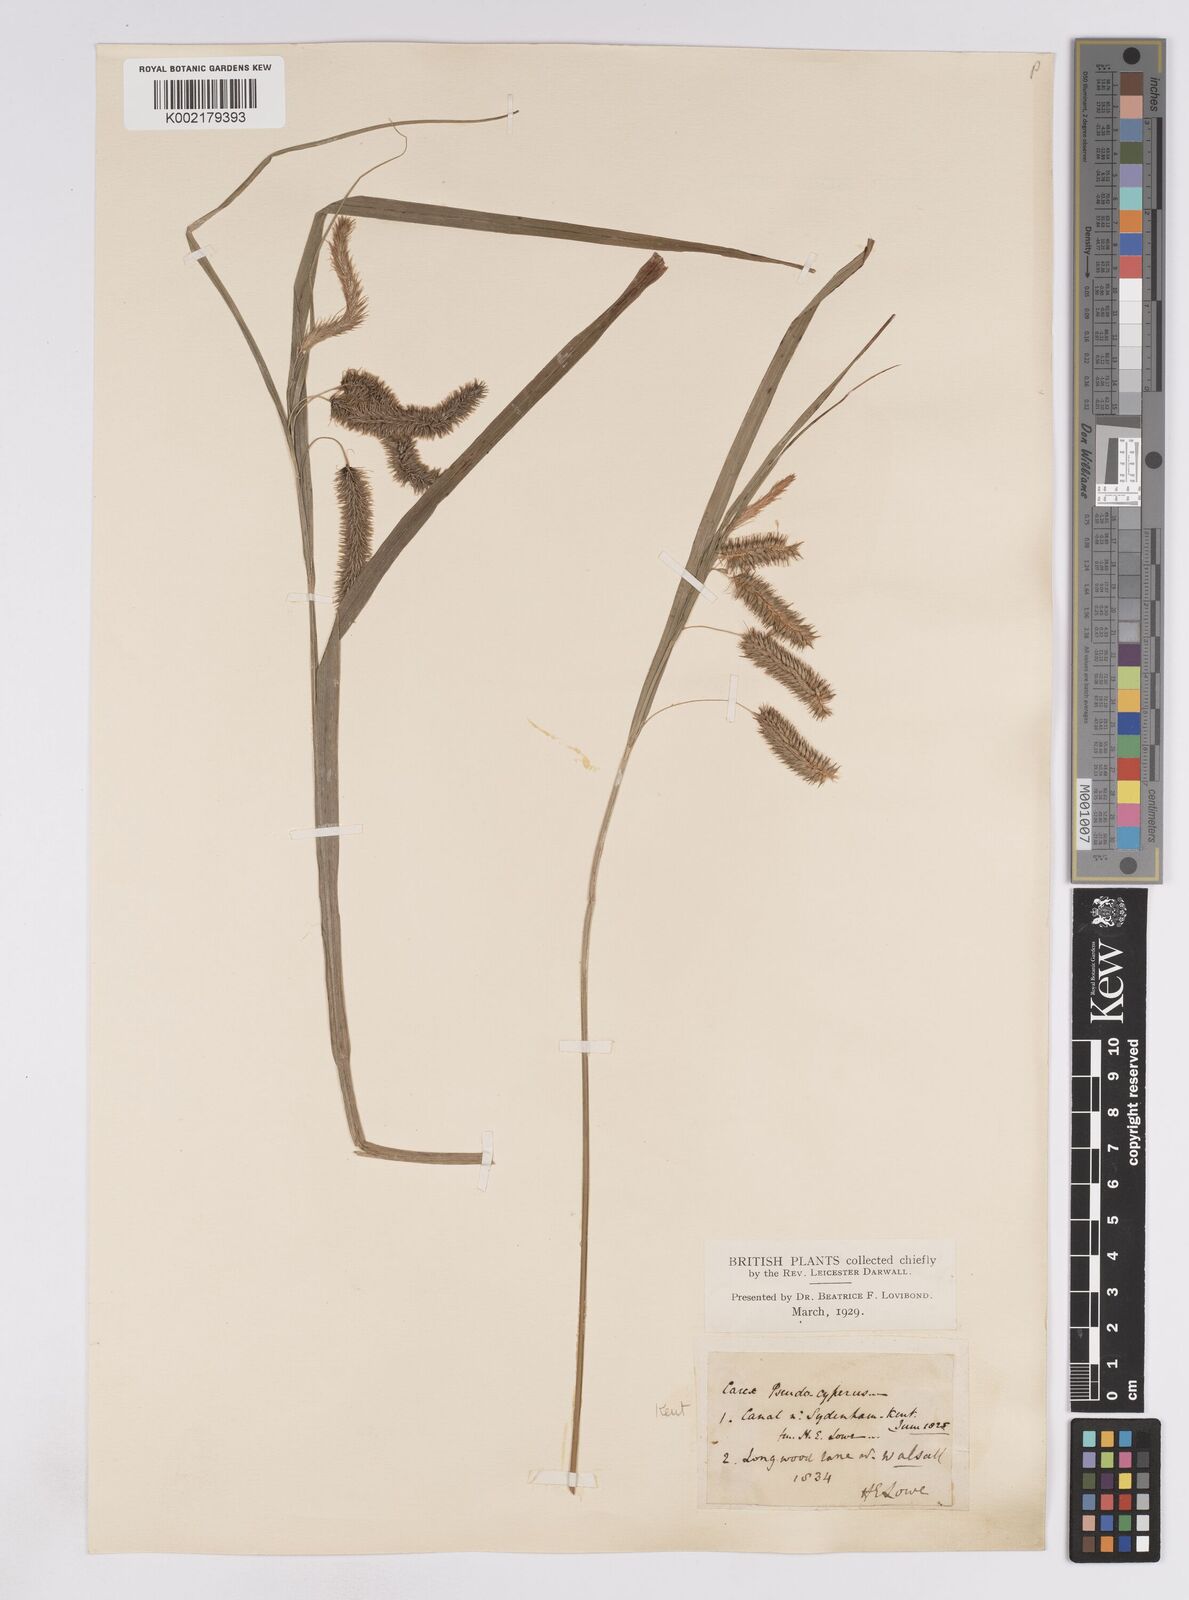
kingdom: Plantae
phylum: Tracheophyta
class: Liliopsida
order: Poales
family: Cyperaceae
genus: Carex
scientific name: Carex pseudocyperus
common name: Cyperus sedge
